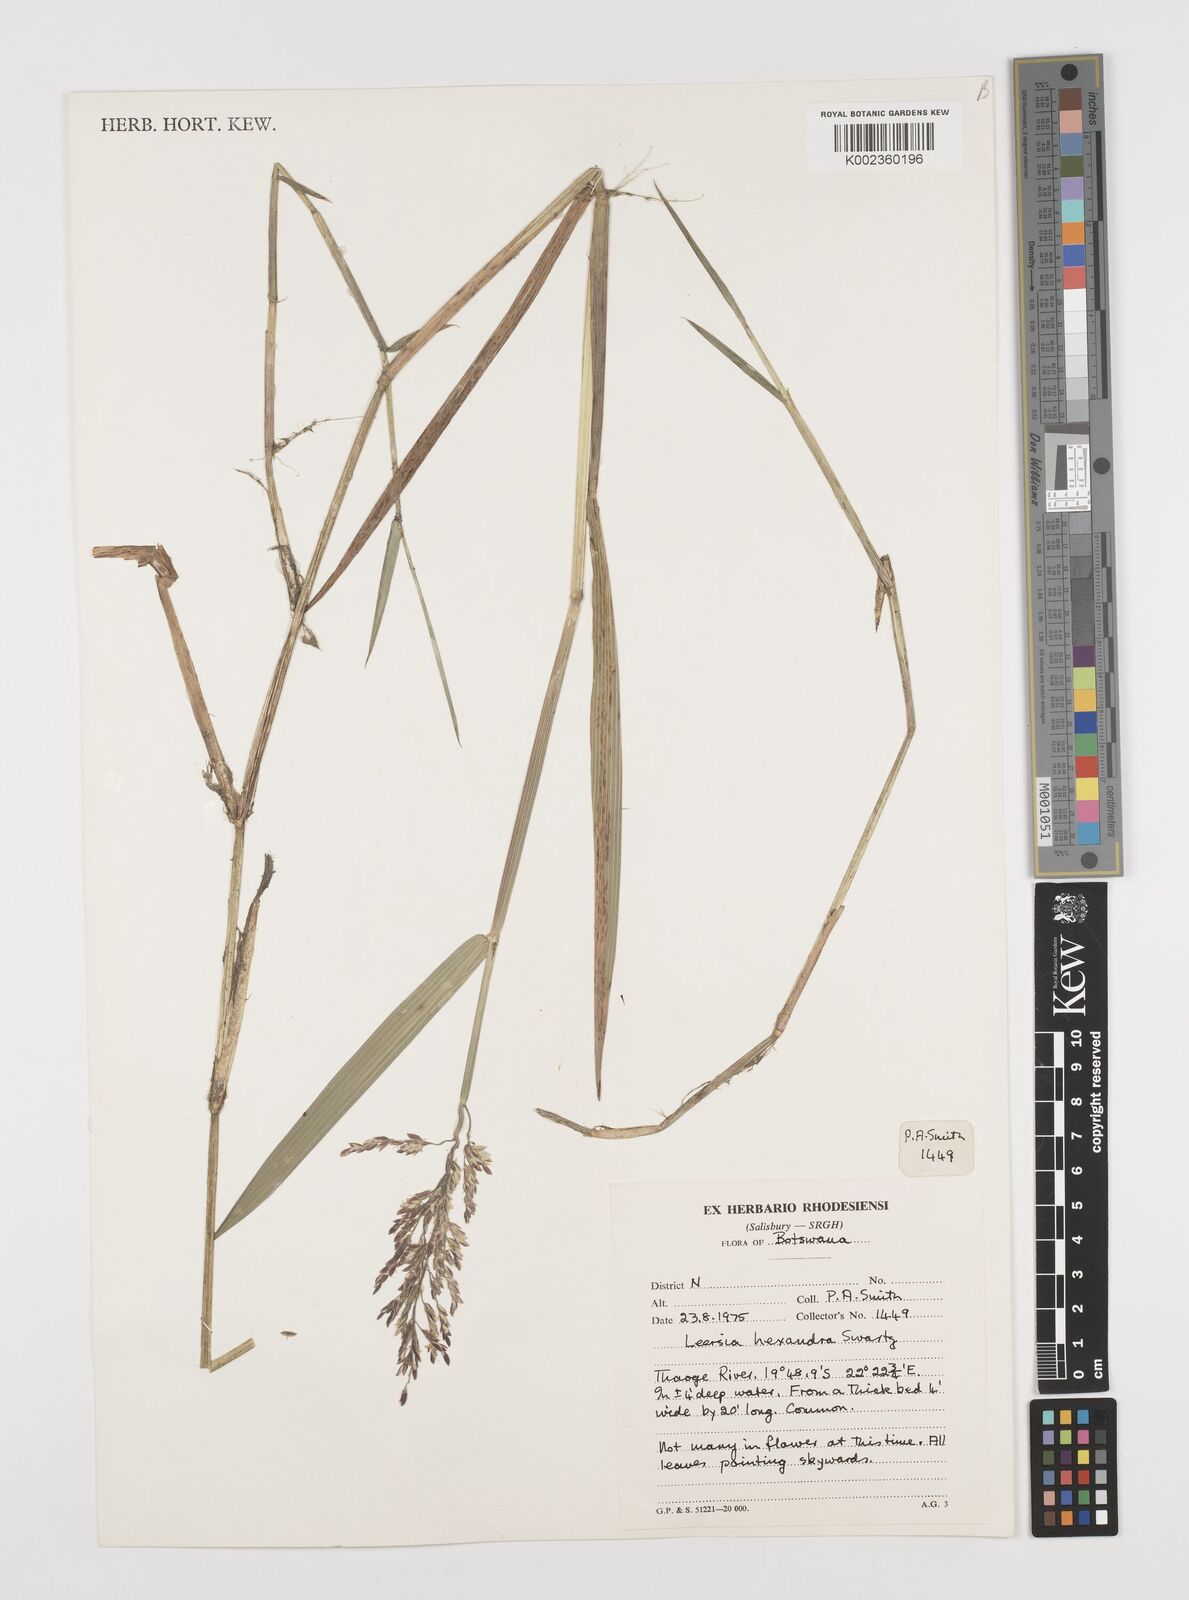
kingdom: Plantae
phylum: Tracheophyta
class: Liliopsida
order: Poales
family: Poaceae
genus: Leersia
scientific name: Leersia hexandra
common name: Southern cut grass
